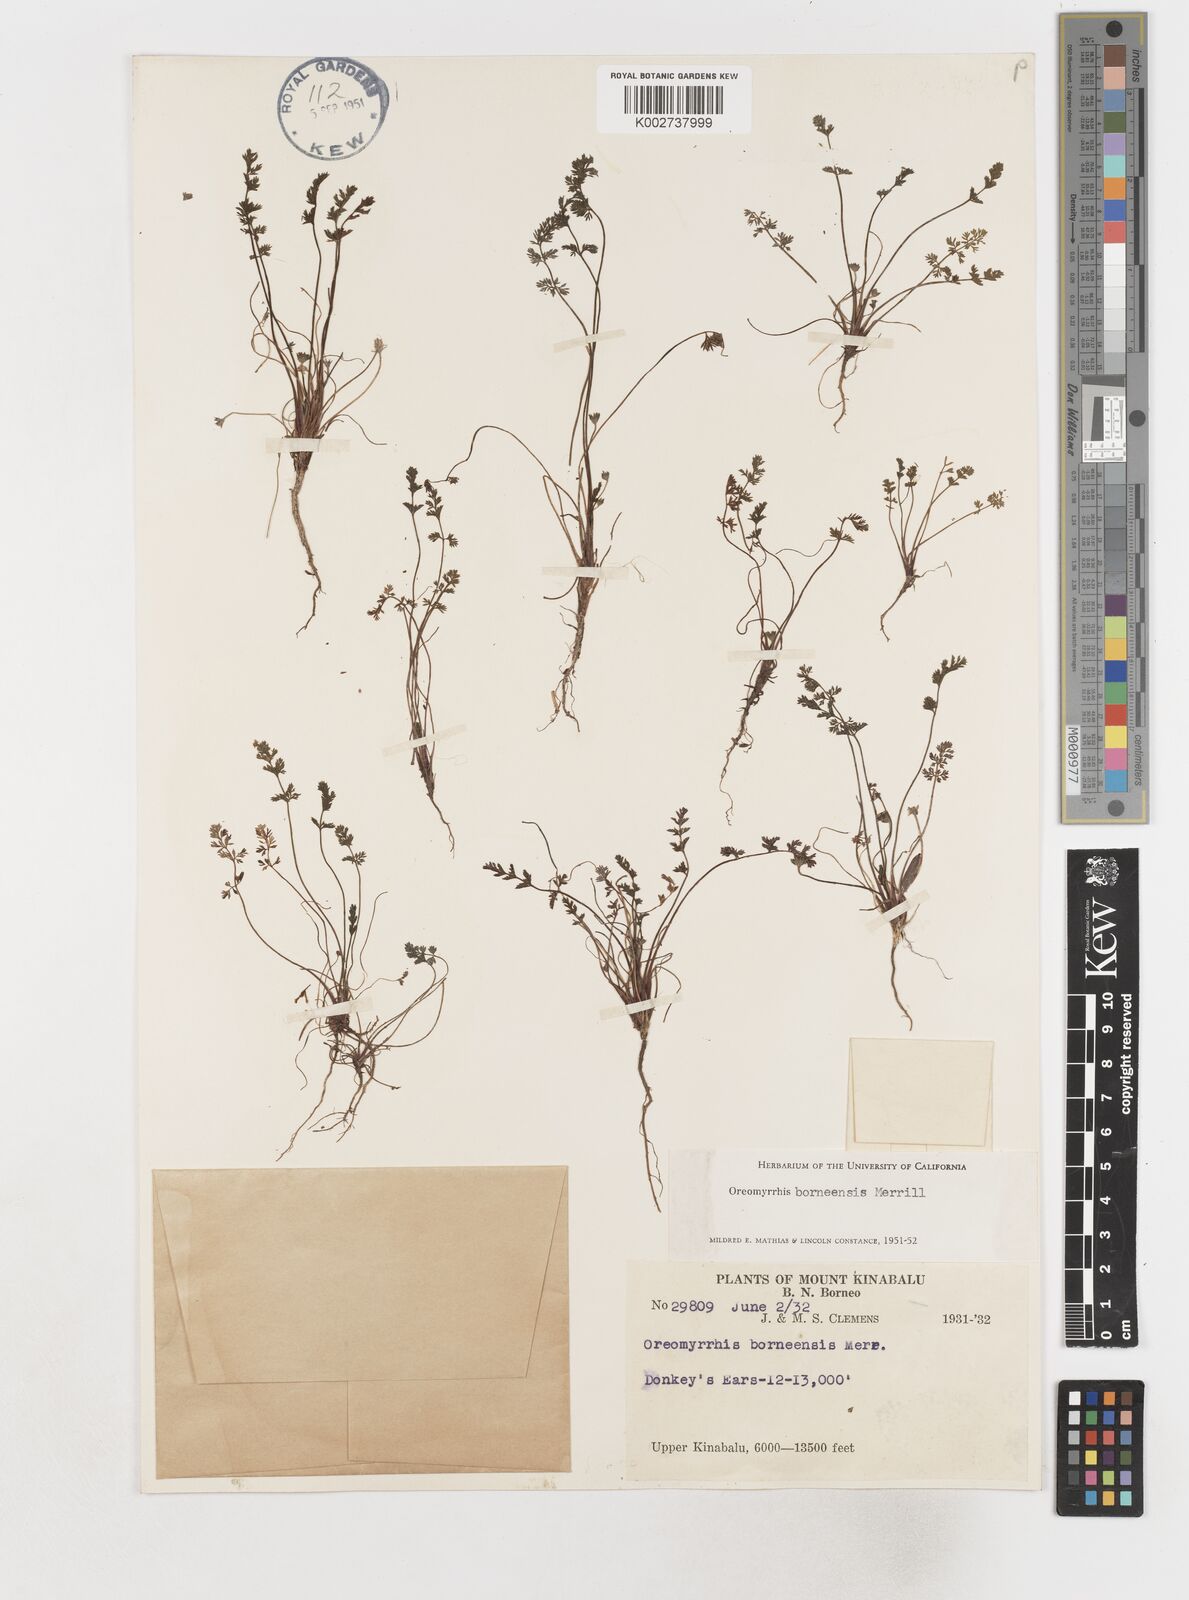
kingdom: Plantae
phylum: Tracheophyta
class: Magnoliopsida
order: Apiales
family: Apiaceae
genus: Chaerophyllum
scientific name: Chaerophyllum andicola
